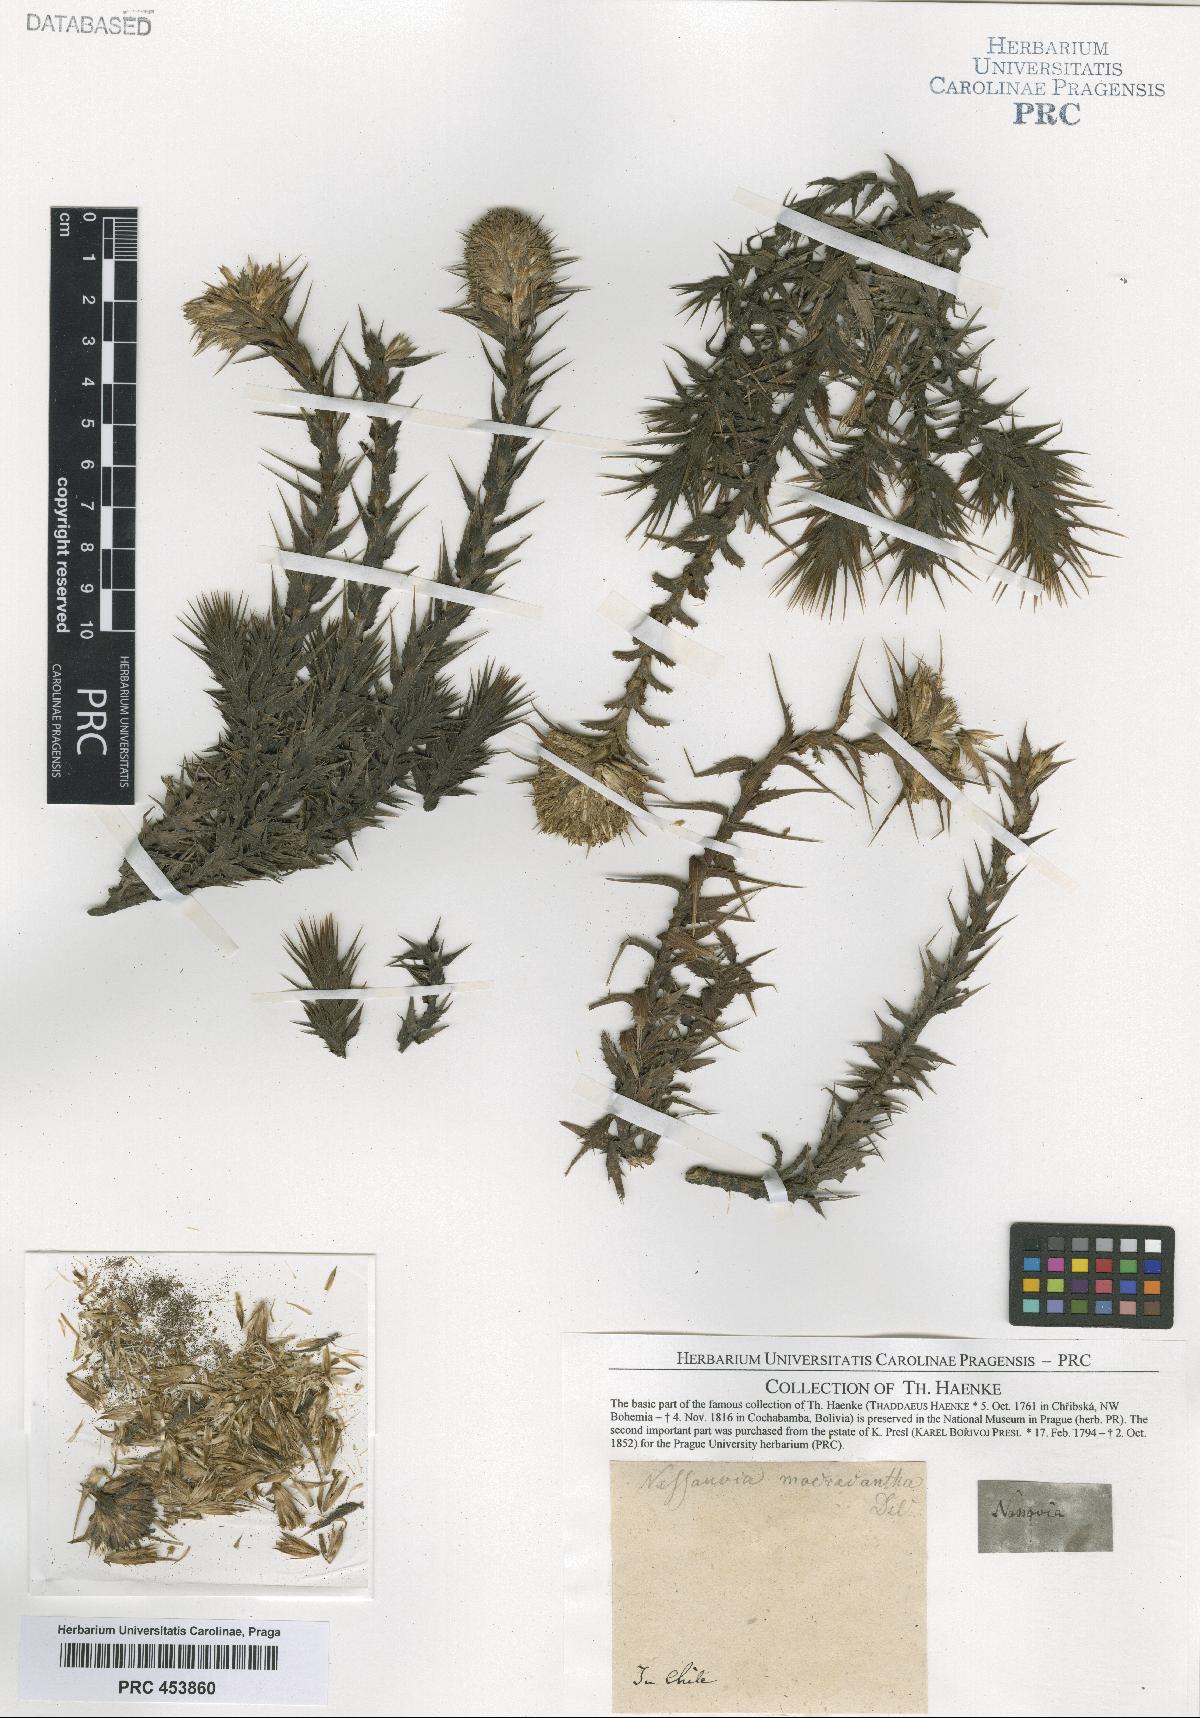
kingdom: Plantae
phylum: Tracheophyta
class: Magnoliopsida
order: Asterales
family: Asteraceae
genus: Nassauvia
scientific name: Nassauvia cumingii
